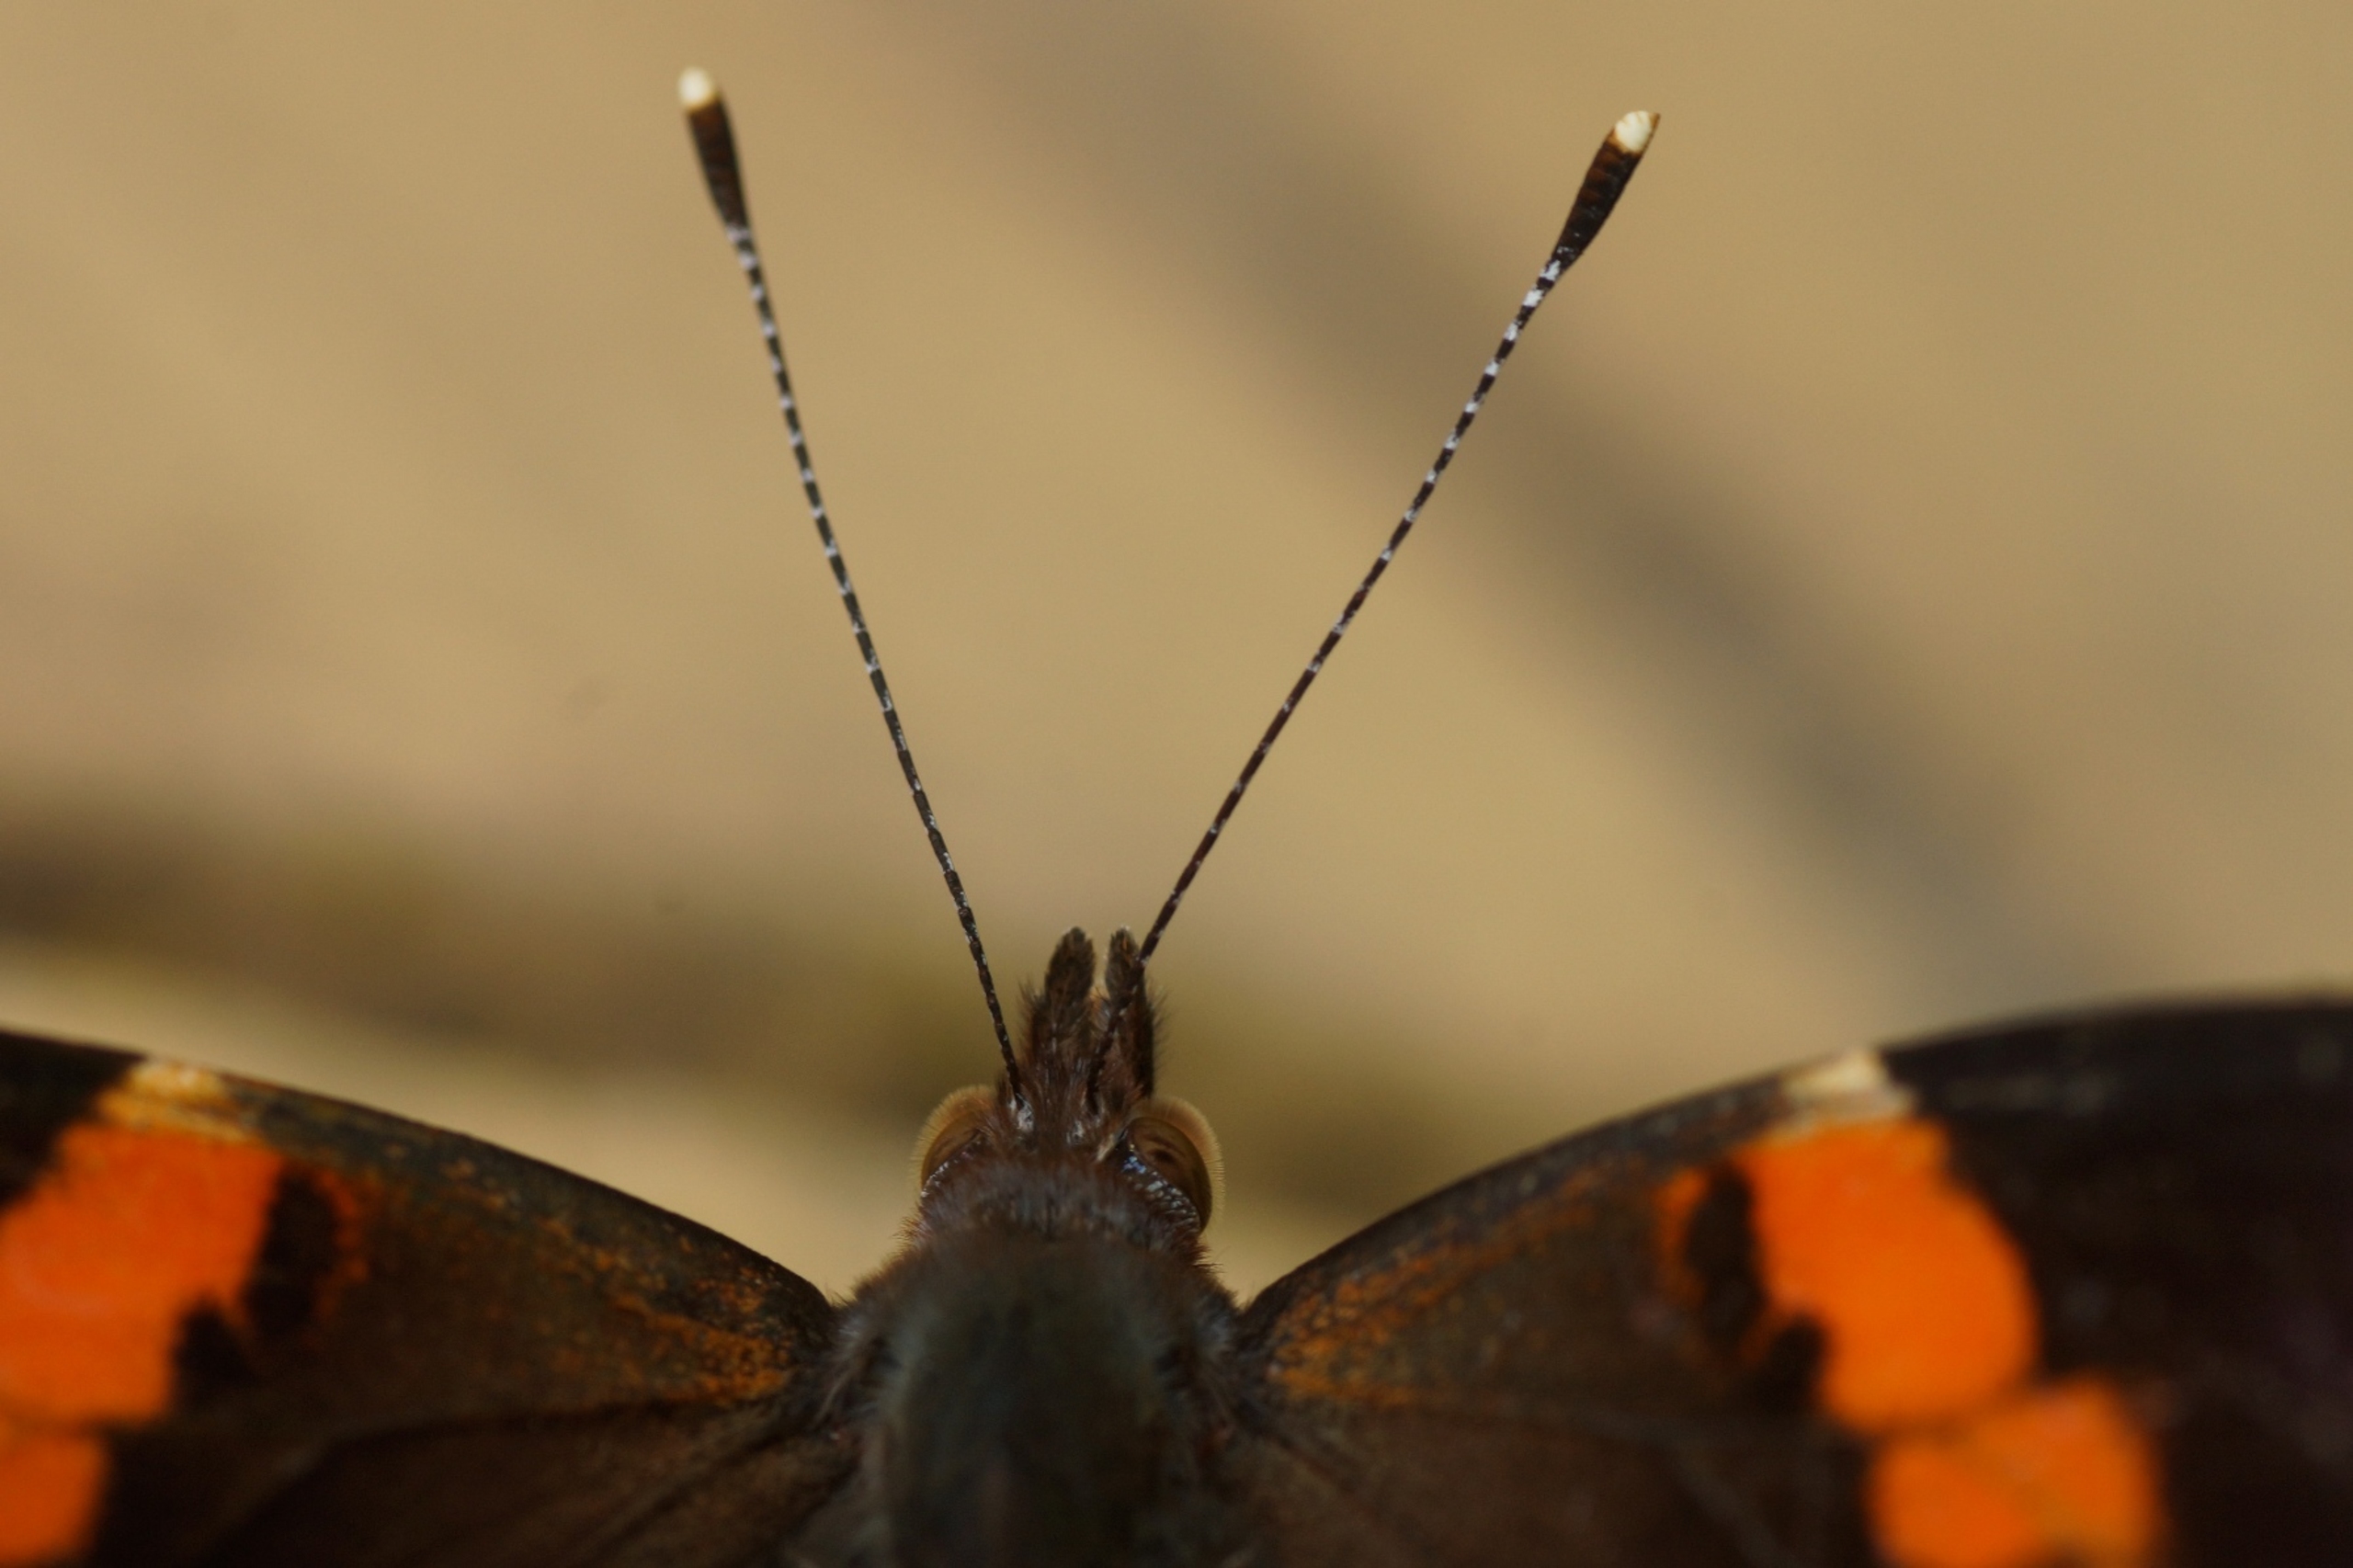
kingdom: Animalia
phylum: Arthropoda
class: Insecta
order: Lepidoptera
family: Nymphalidae
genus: Vanessa
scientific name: Vanessa atalanta
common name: Admiral
